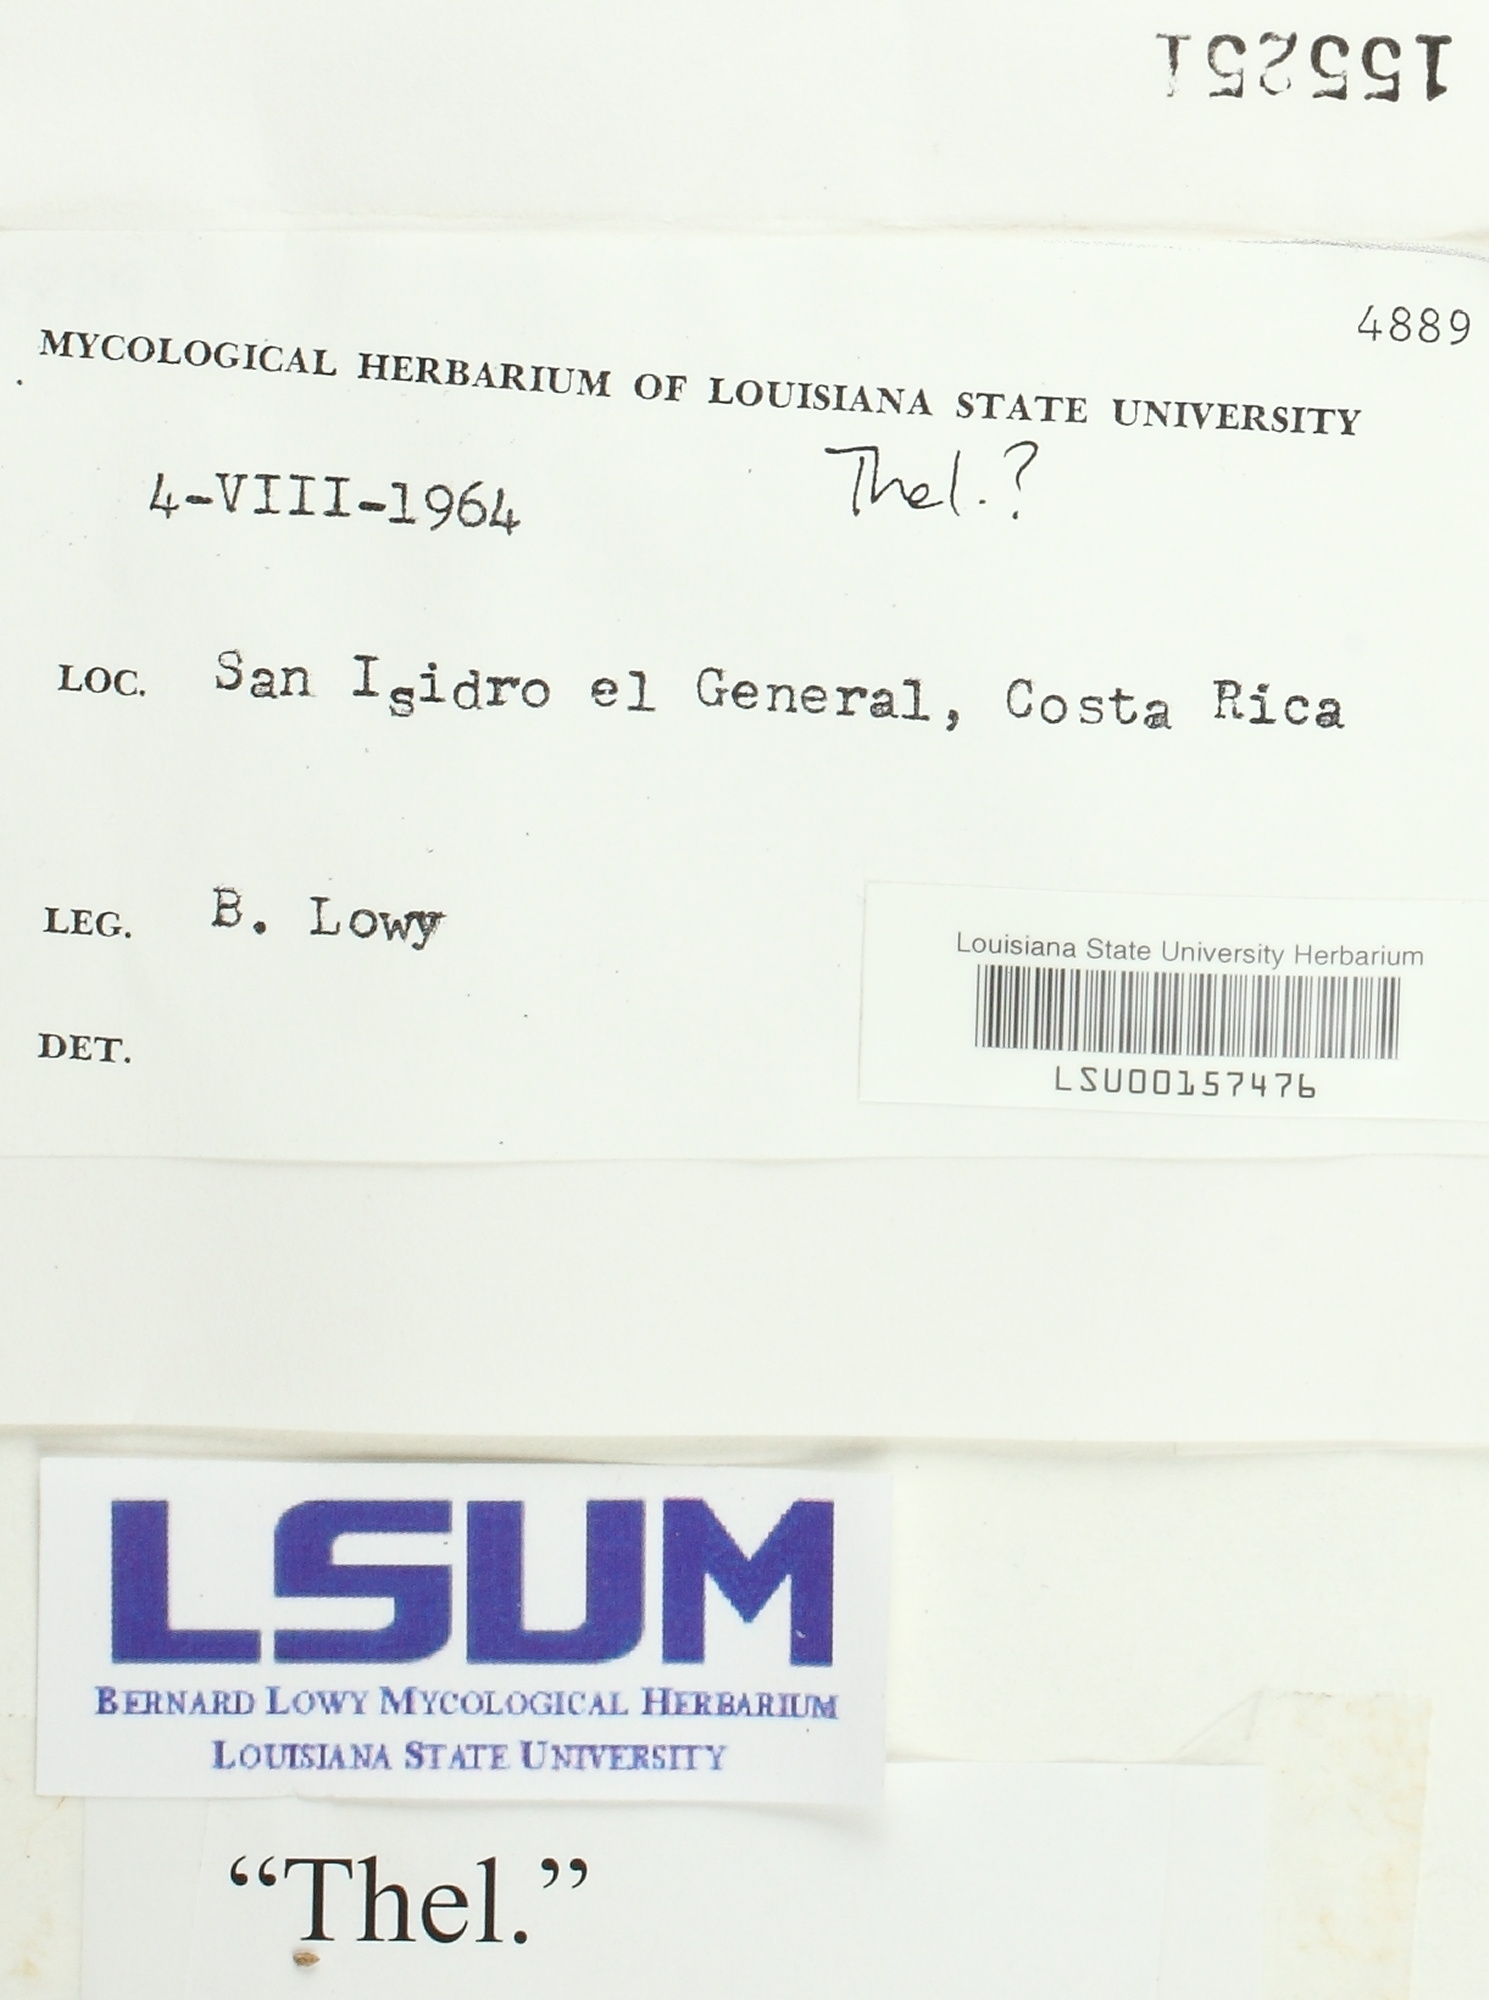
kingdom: Fungi
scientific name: Fungi
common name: Fungi
